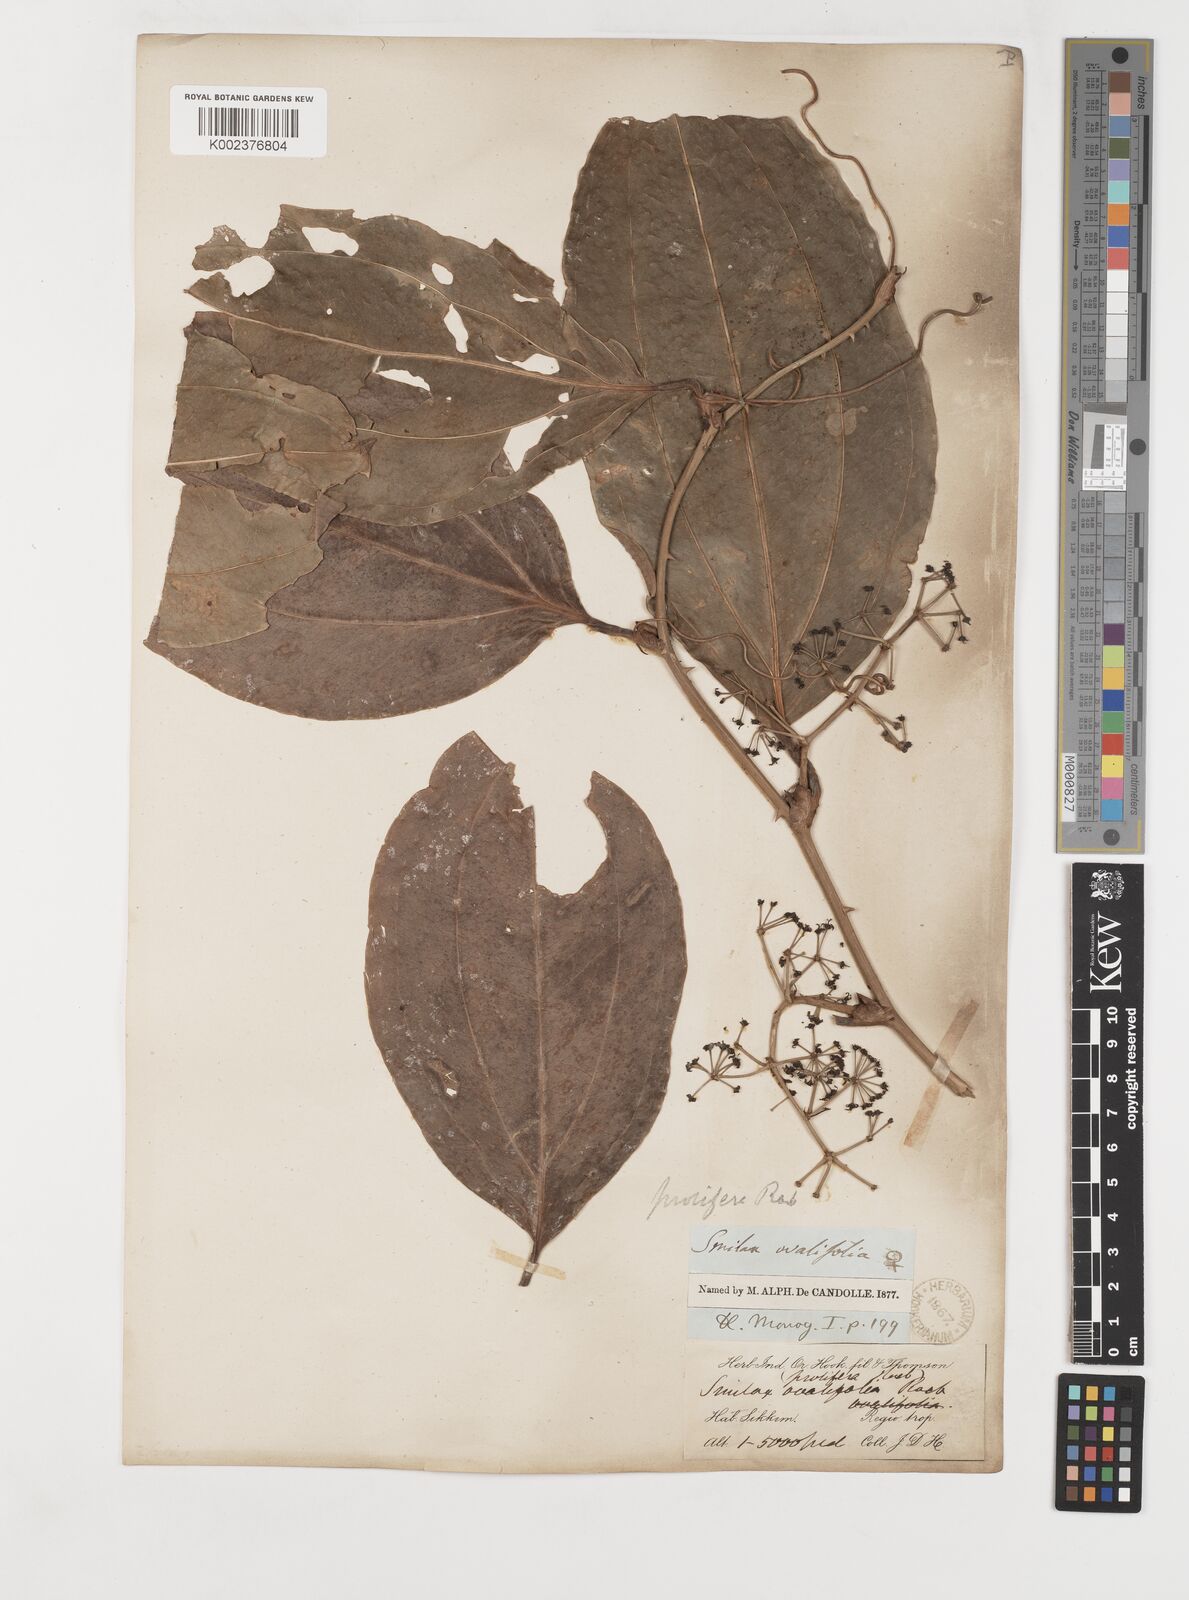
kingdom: Plantae
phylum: Tracheophyta
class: Liliopsida
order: Liliales
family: Smilacaceae
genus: Smilax
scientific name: Smilax prolifera
